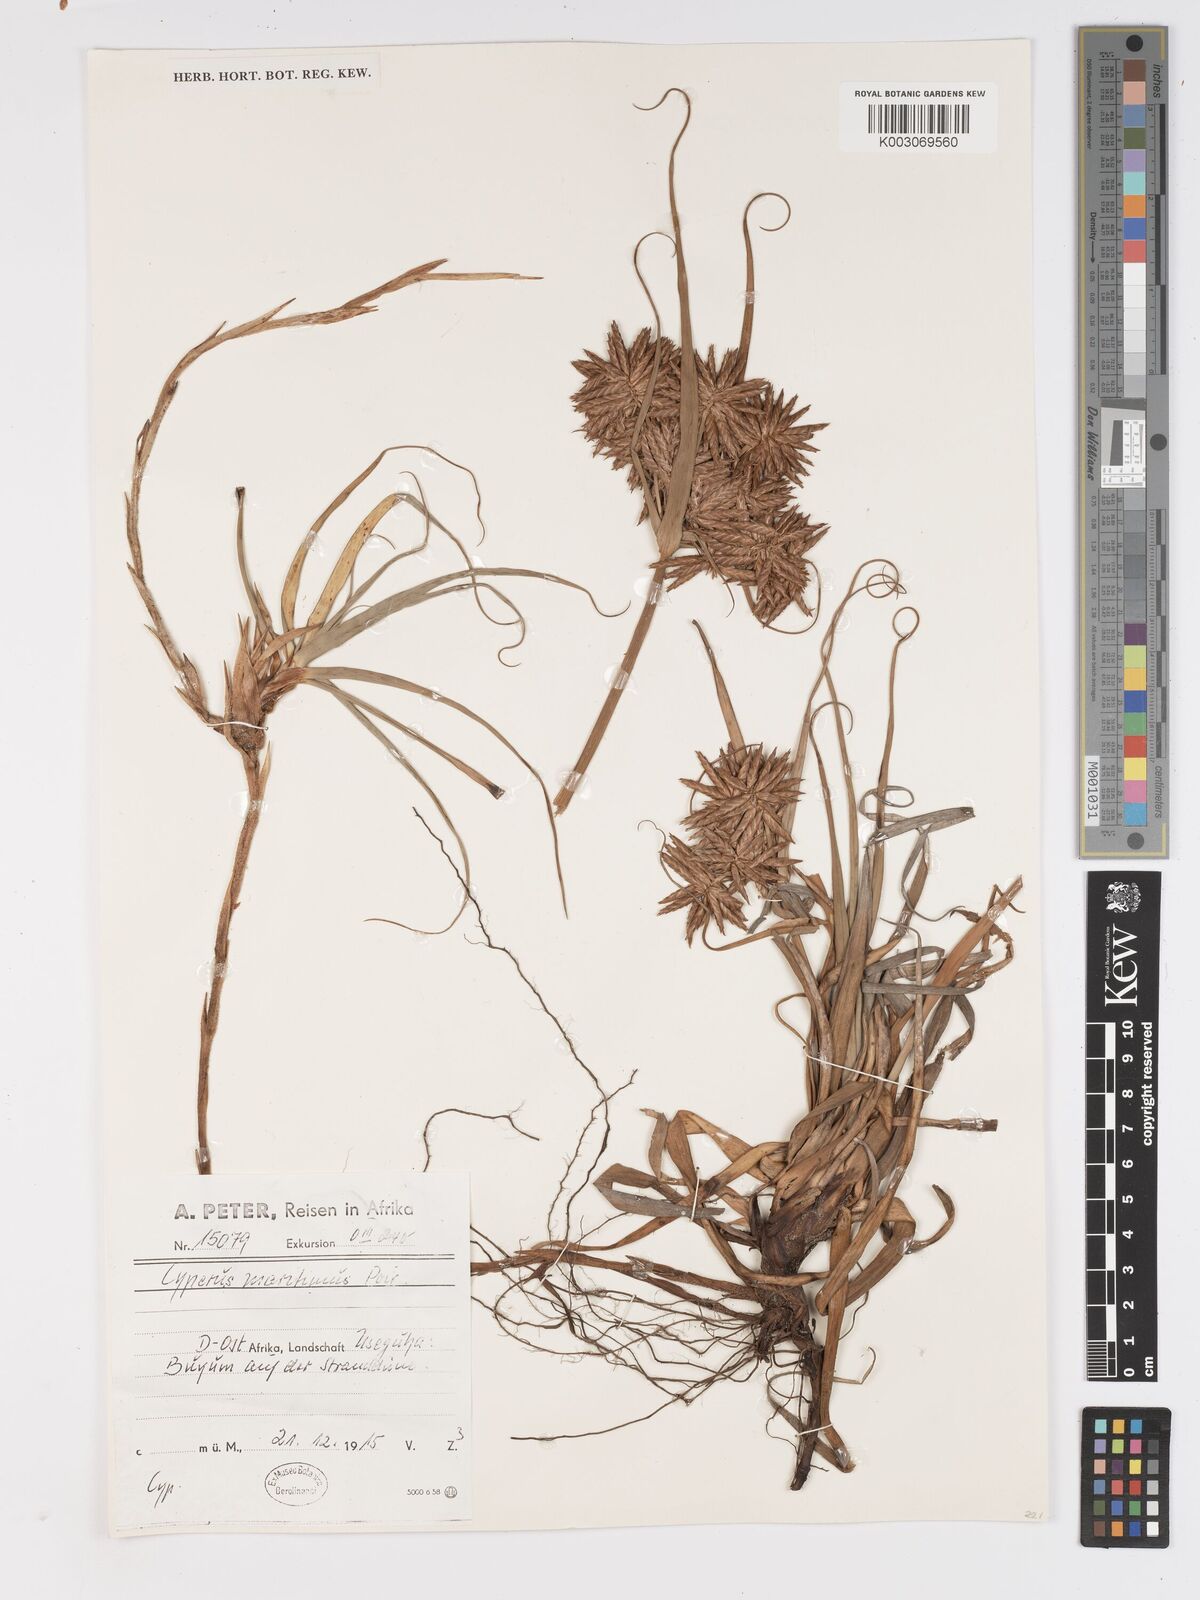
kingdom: Plantae
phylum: Tracheophyta
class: Liliopsida
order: Poales
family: Cyperaceae
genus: Cyperus
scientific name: Cyperus crassipes
